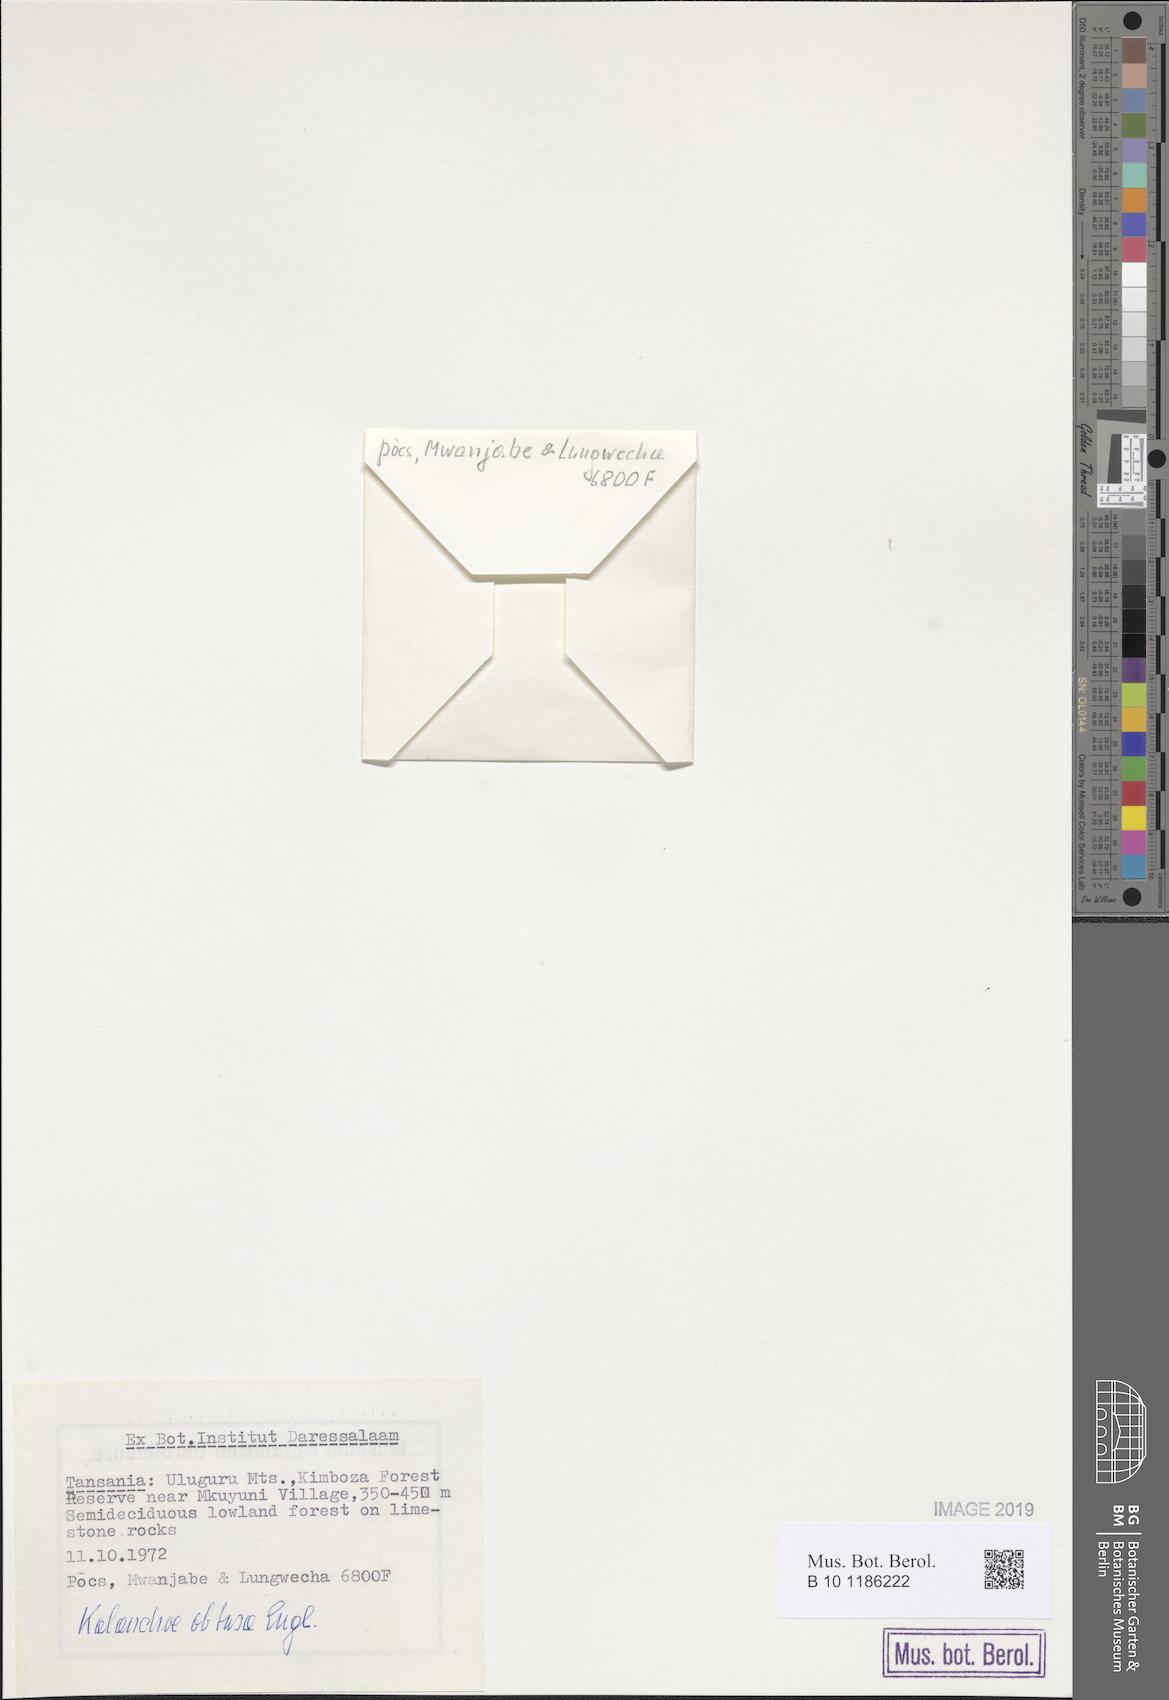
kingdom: Plantae
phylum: Tracheophyta
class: Magnoliopsida
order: Saxifragales
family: Crassulaceae
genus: Kalanchoe
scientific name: Kalanchoe obtusa
